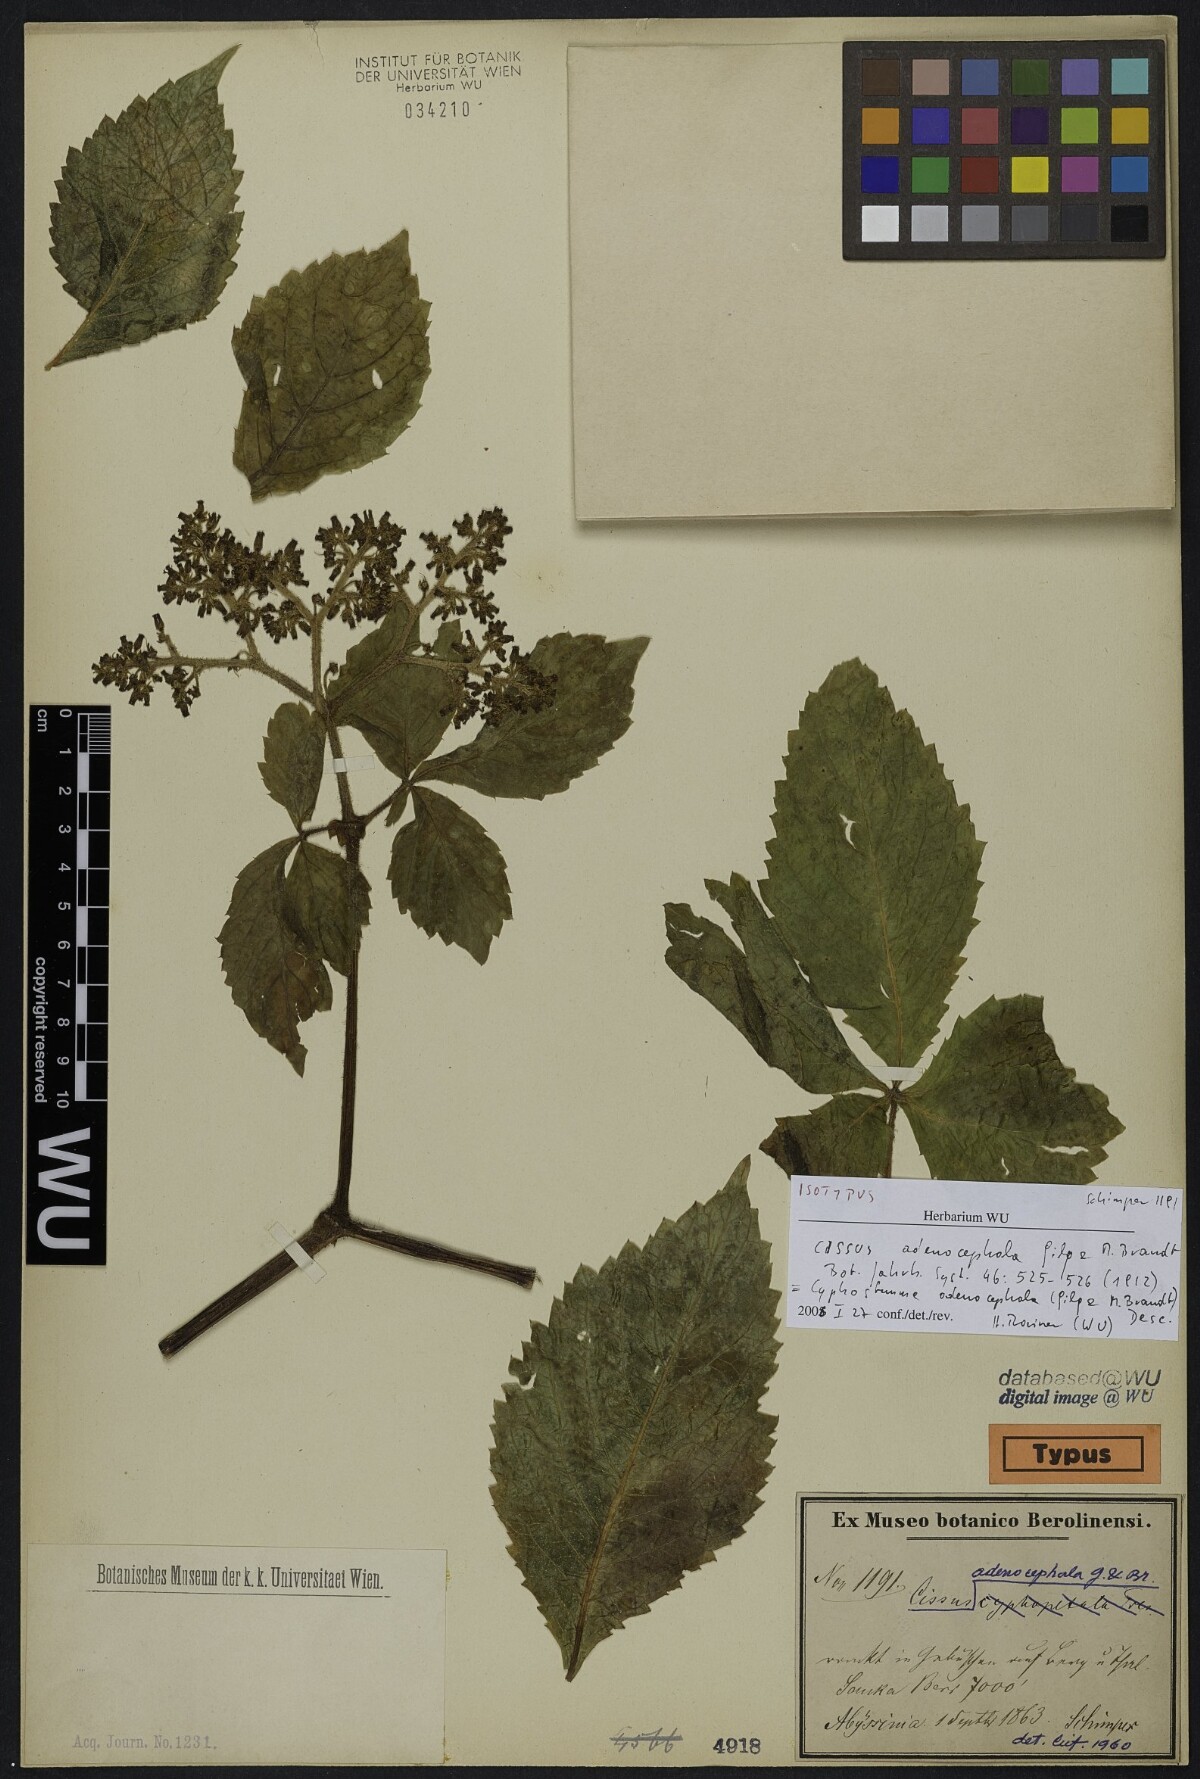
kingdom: Plantae
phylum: Tracheophyta
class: Magnoliopsida
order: Vitales
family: Vitaceae
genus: Cyphostemma
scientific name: Cyphostemma dembianense
